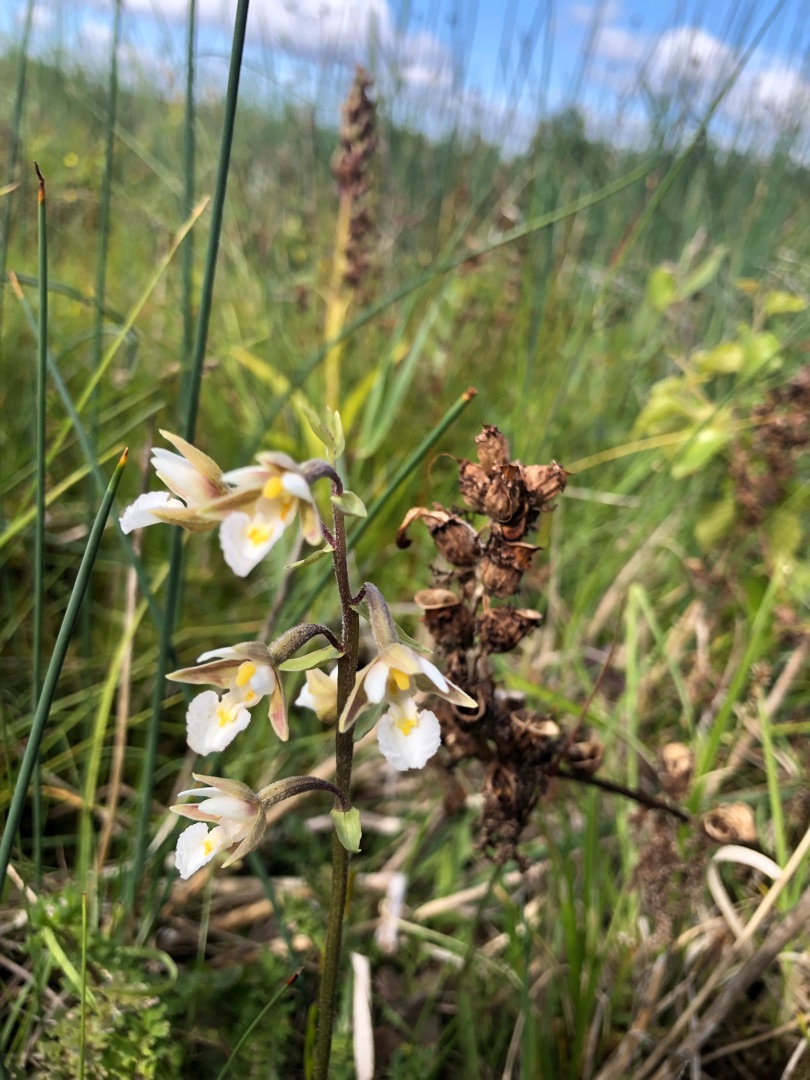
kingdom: Plantae
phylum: Tracheophyta
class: Liliopsida
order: Asparagales
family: Orchidaceae
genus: Epipactis
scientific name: Epipactis palustris
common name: Sump-hullæbe
